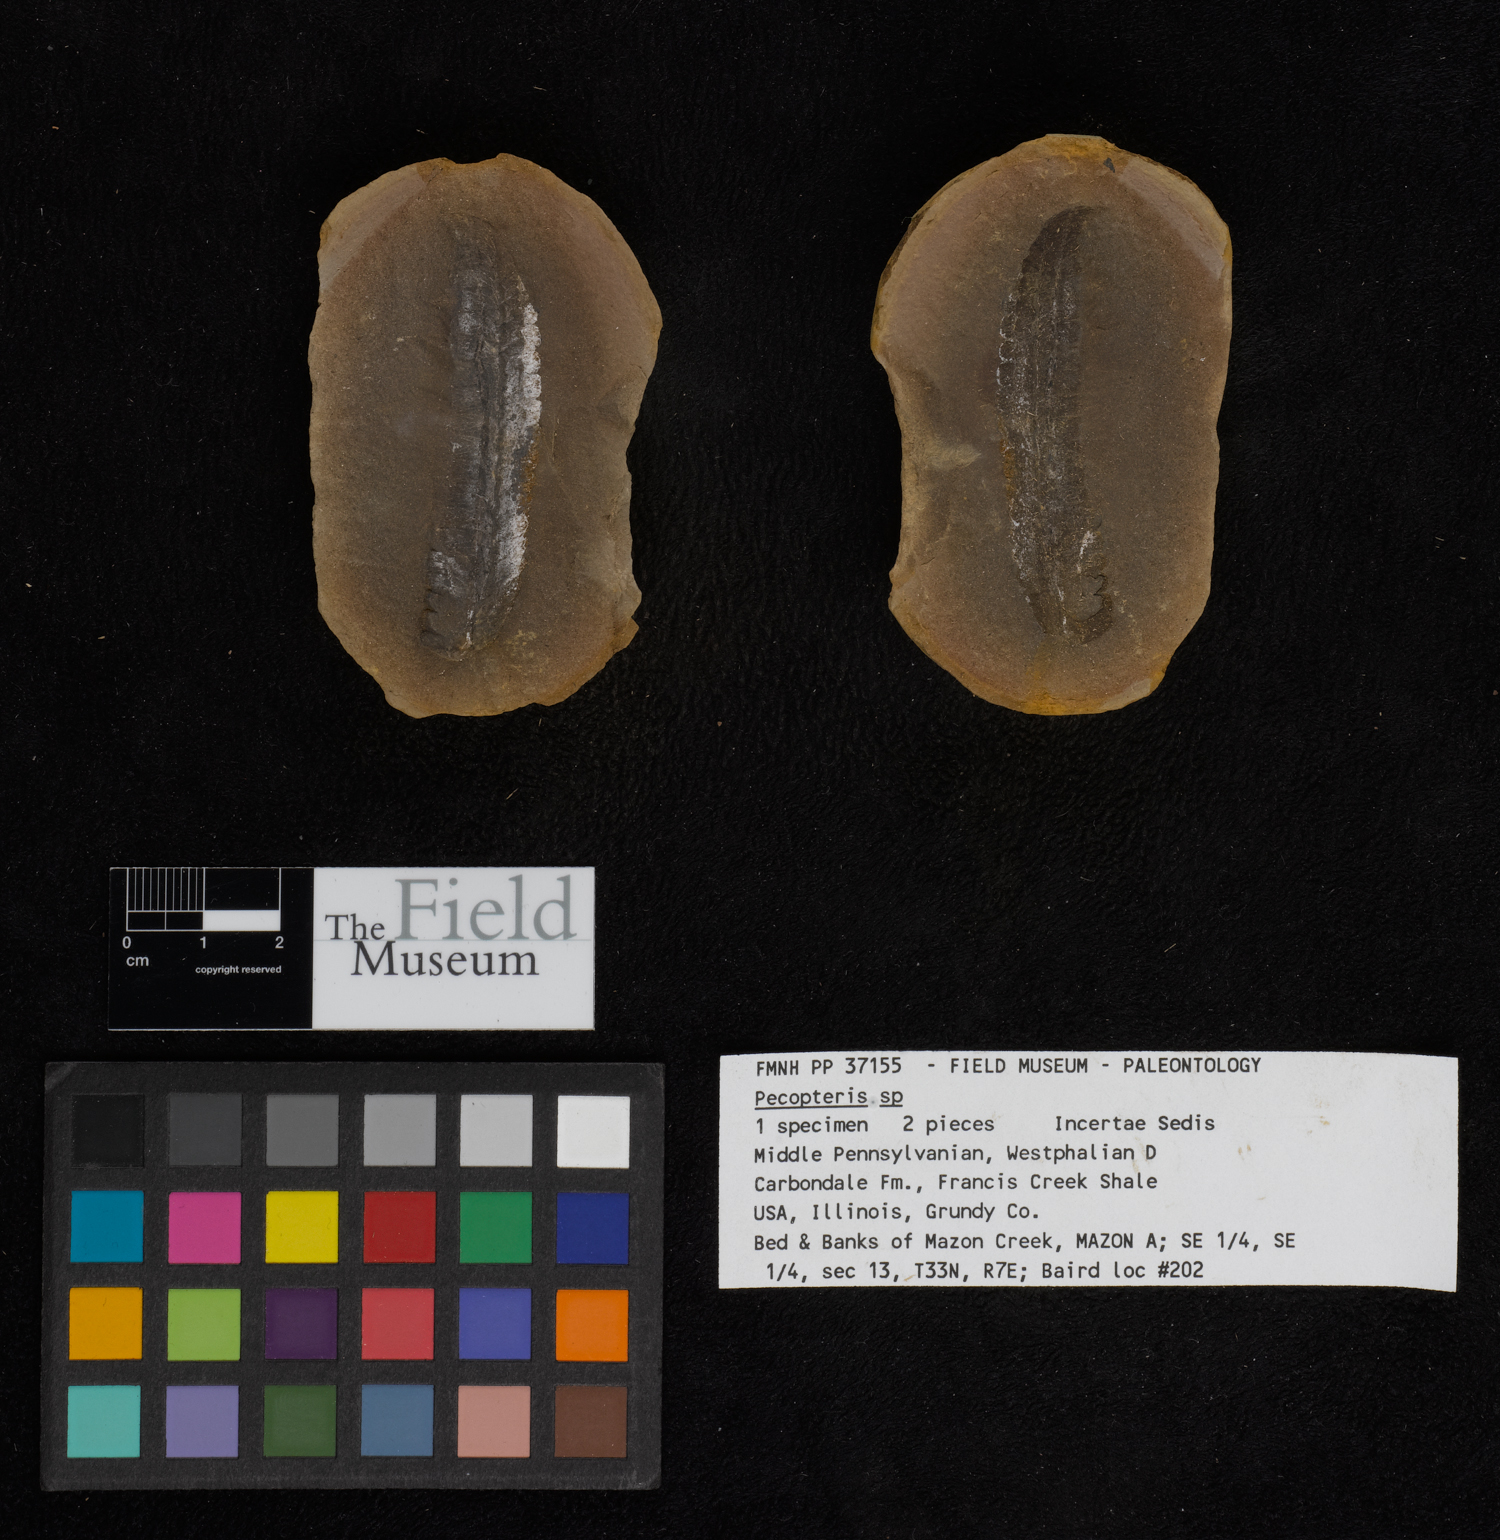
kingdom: Plantae
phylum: Tracheophyta
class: Polypodiopsida
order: Marattiales
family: Asterothecaceae
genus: Pecopteris
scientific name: Pecopteris
